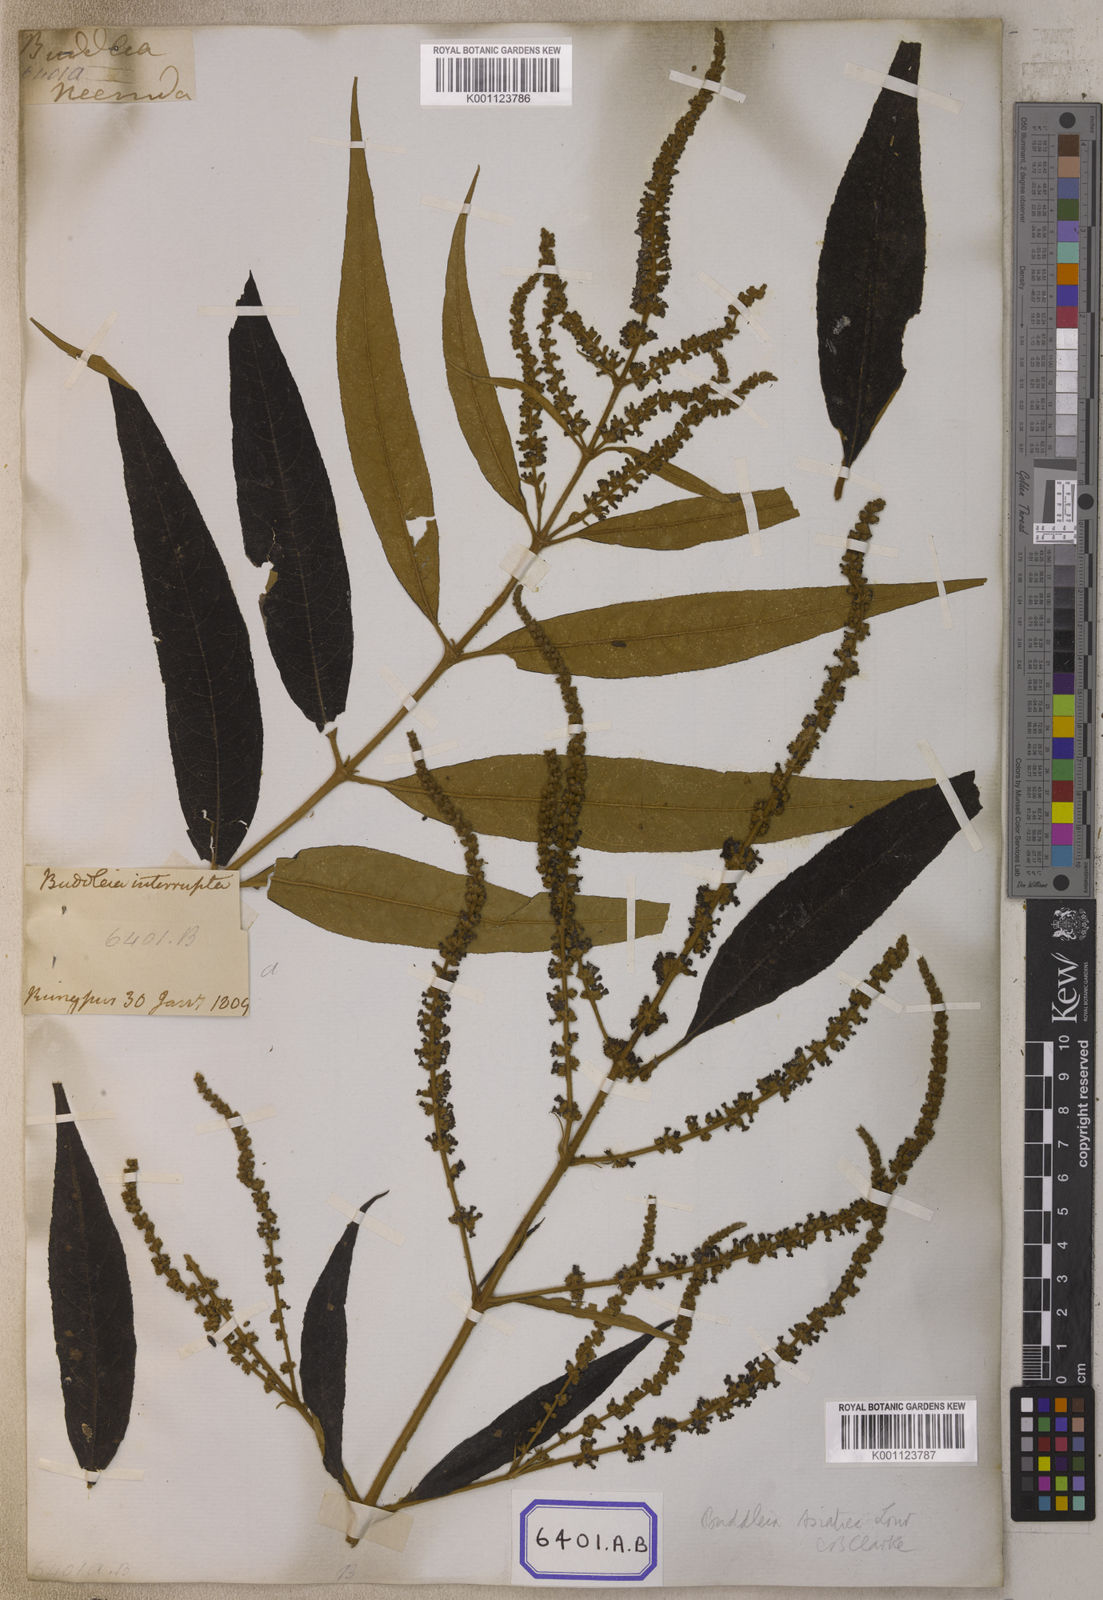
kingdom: Plantae
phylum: Tracheophyta
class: Magnoliopsida
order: Lamiales
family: Scrophulariaceae
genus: Buddleja
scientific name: Buddleja
